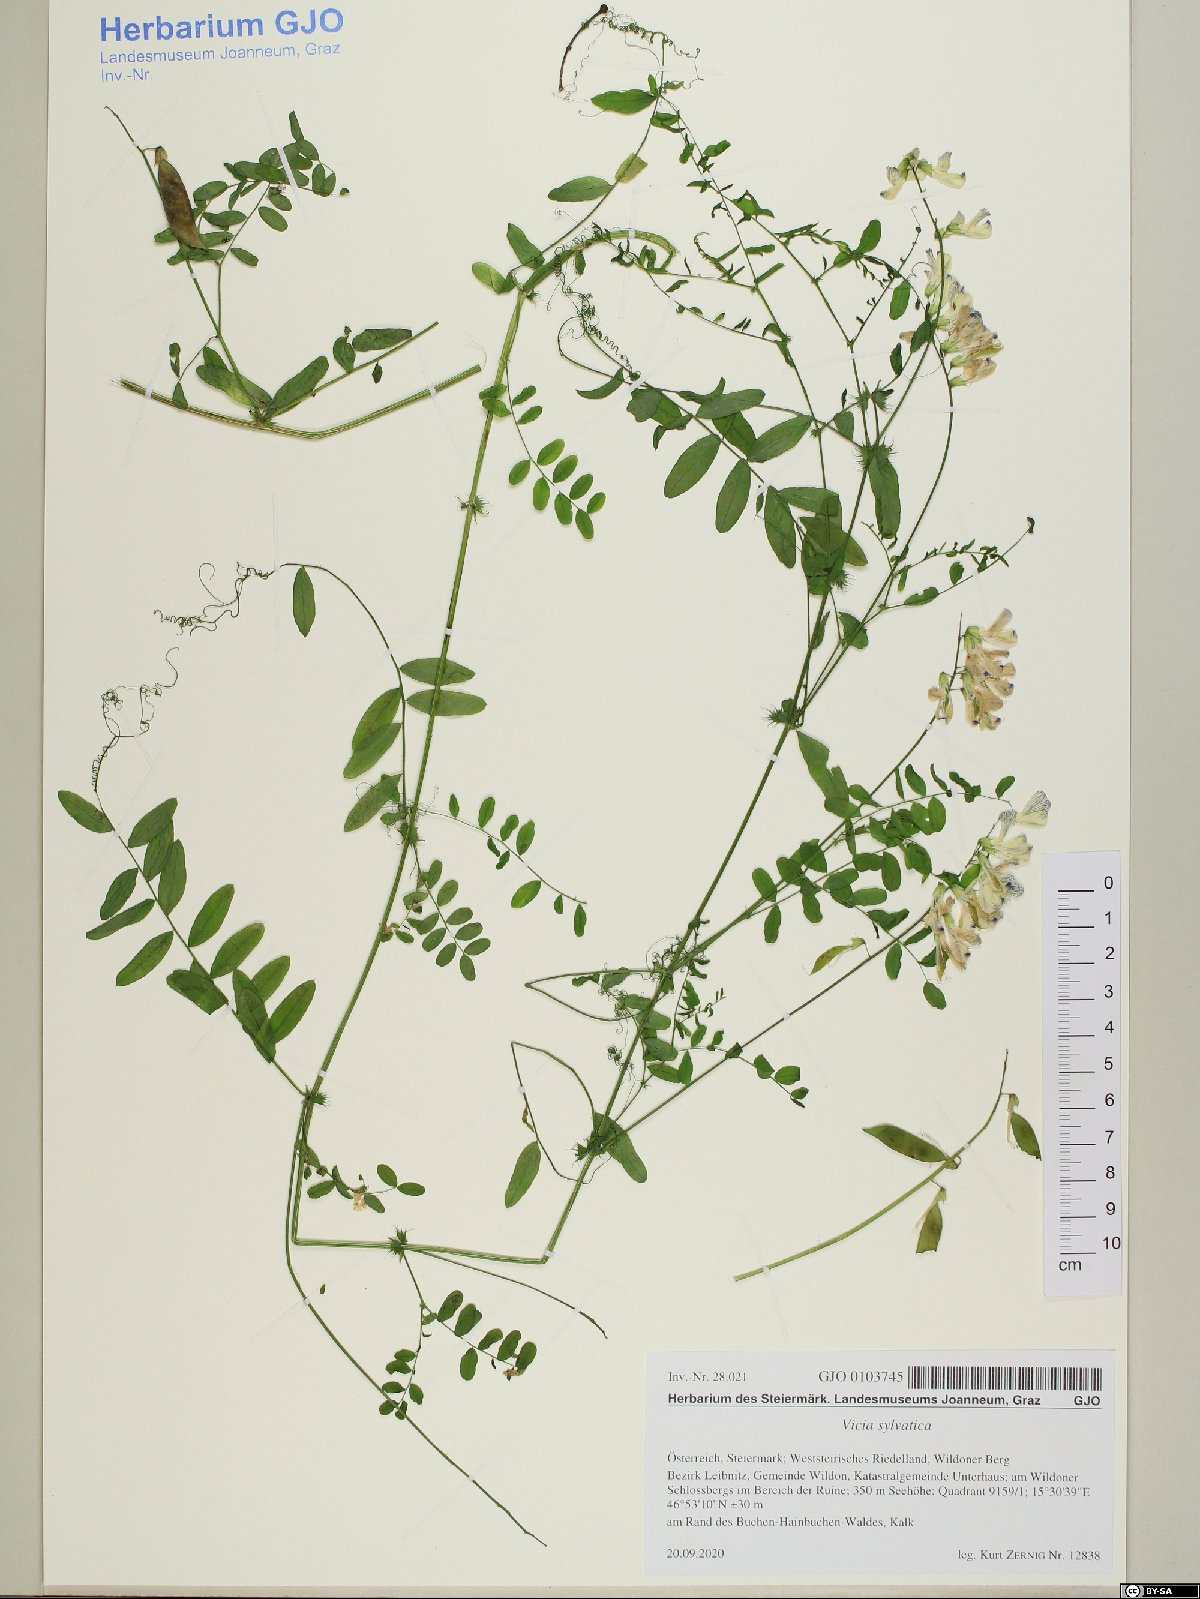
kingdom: Plantae
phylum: Tracheophyta
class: Magnoliopsida
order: Fabales
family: Fabaceae
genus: Vicia
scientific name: Vicia sylvatica
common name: Wood vetch
